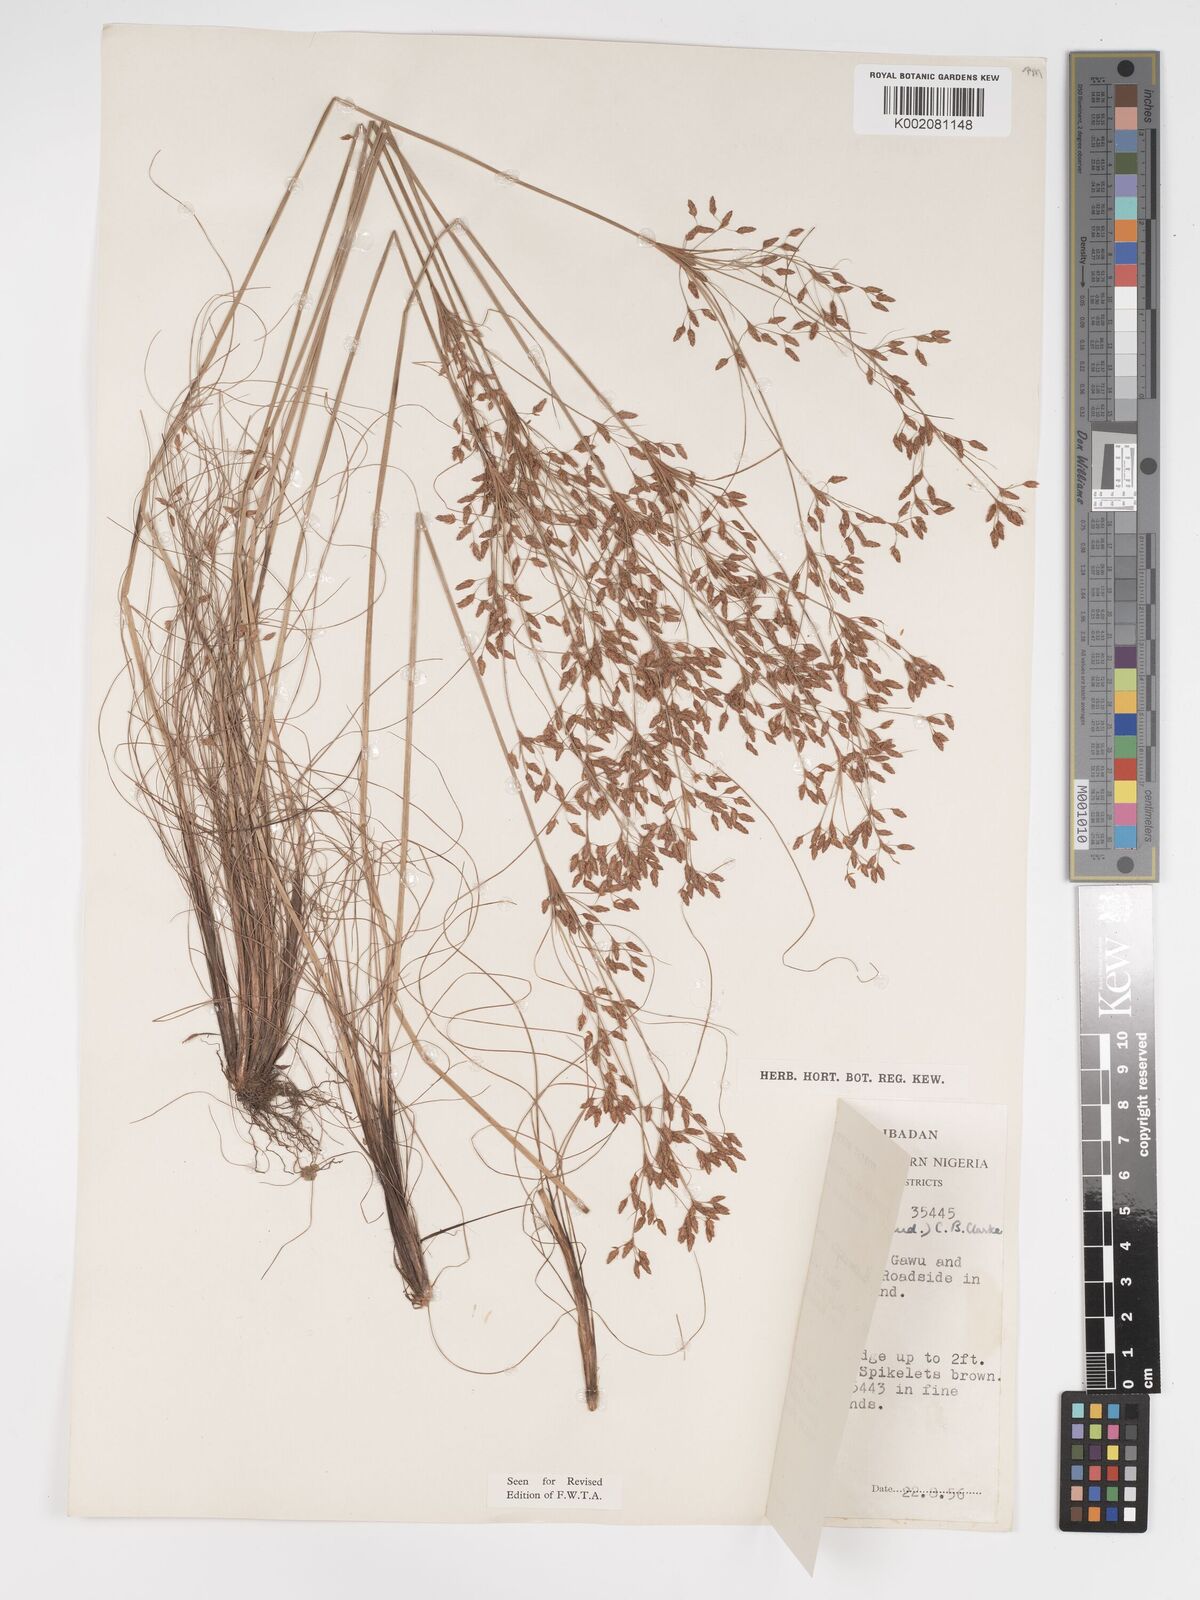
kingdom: Plantae
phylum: Tracheophyta
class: Liliopsida
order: Poales
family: Cyperaceae
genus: Bulbostylis
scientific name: Bulbostylis abortiva
